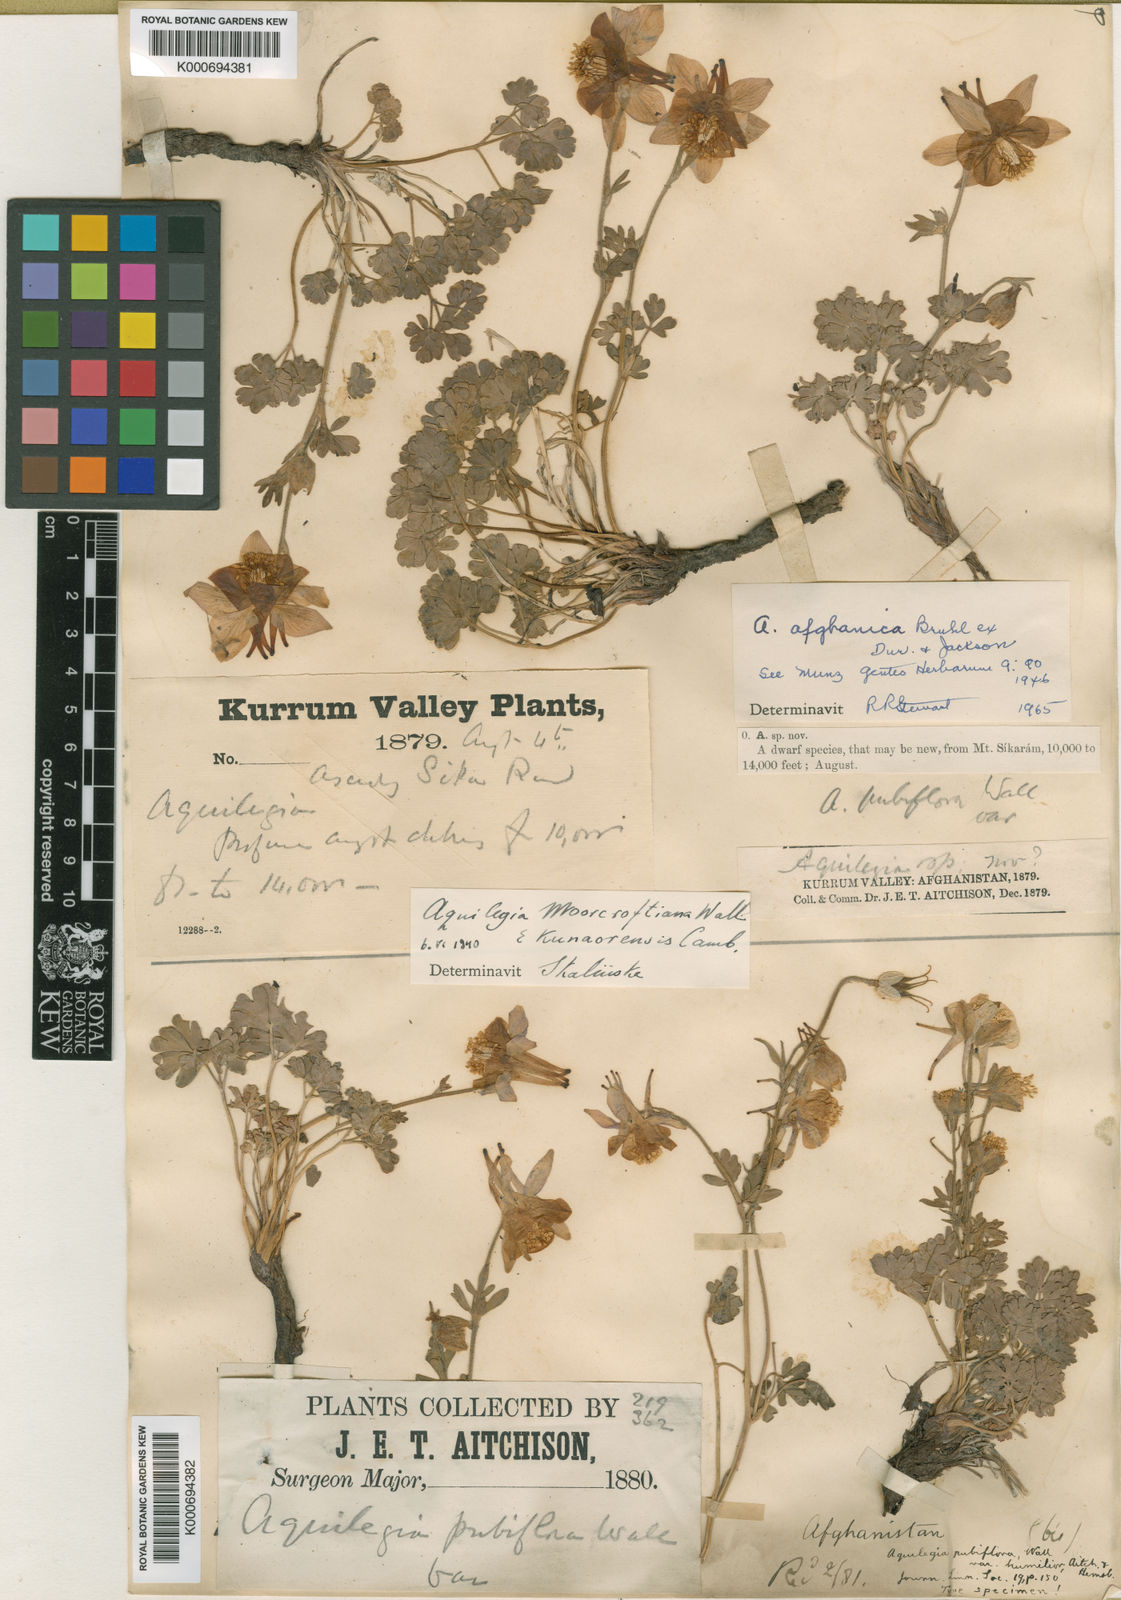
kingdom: Plantae
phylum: Tracheophyta
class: Magnoliopsida
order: Ranunculales
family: Ranunculaceae
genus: Aquilegia
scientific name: Aquilegia
